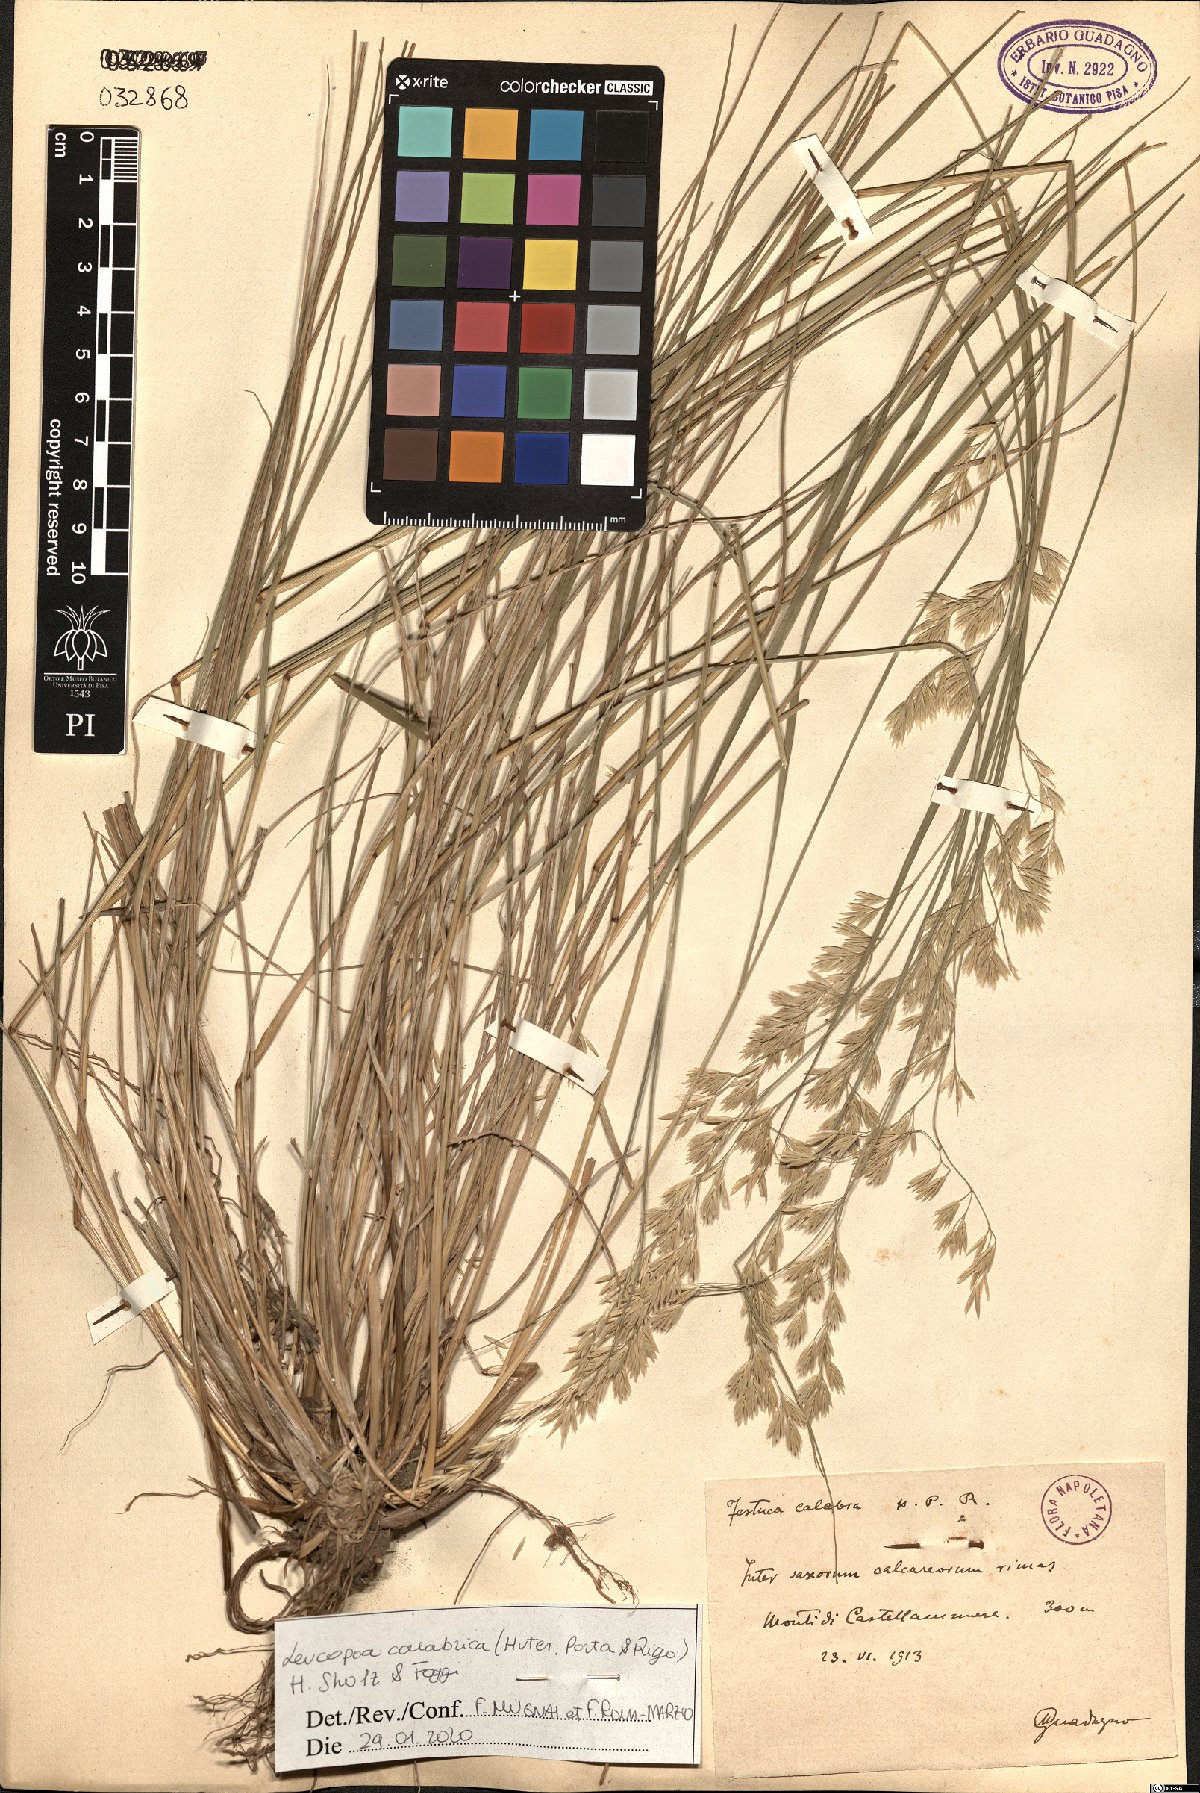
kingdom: Plantae
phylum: Tracheophyta
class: Liliopsida
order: Poales
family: Poaceae
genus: Festuca
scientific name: Festuca calabrica
